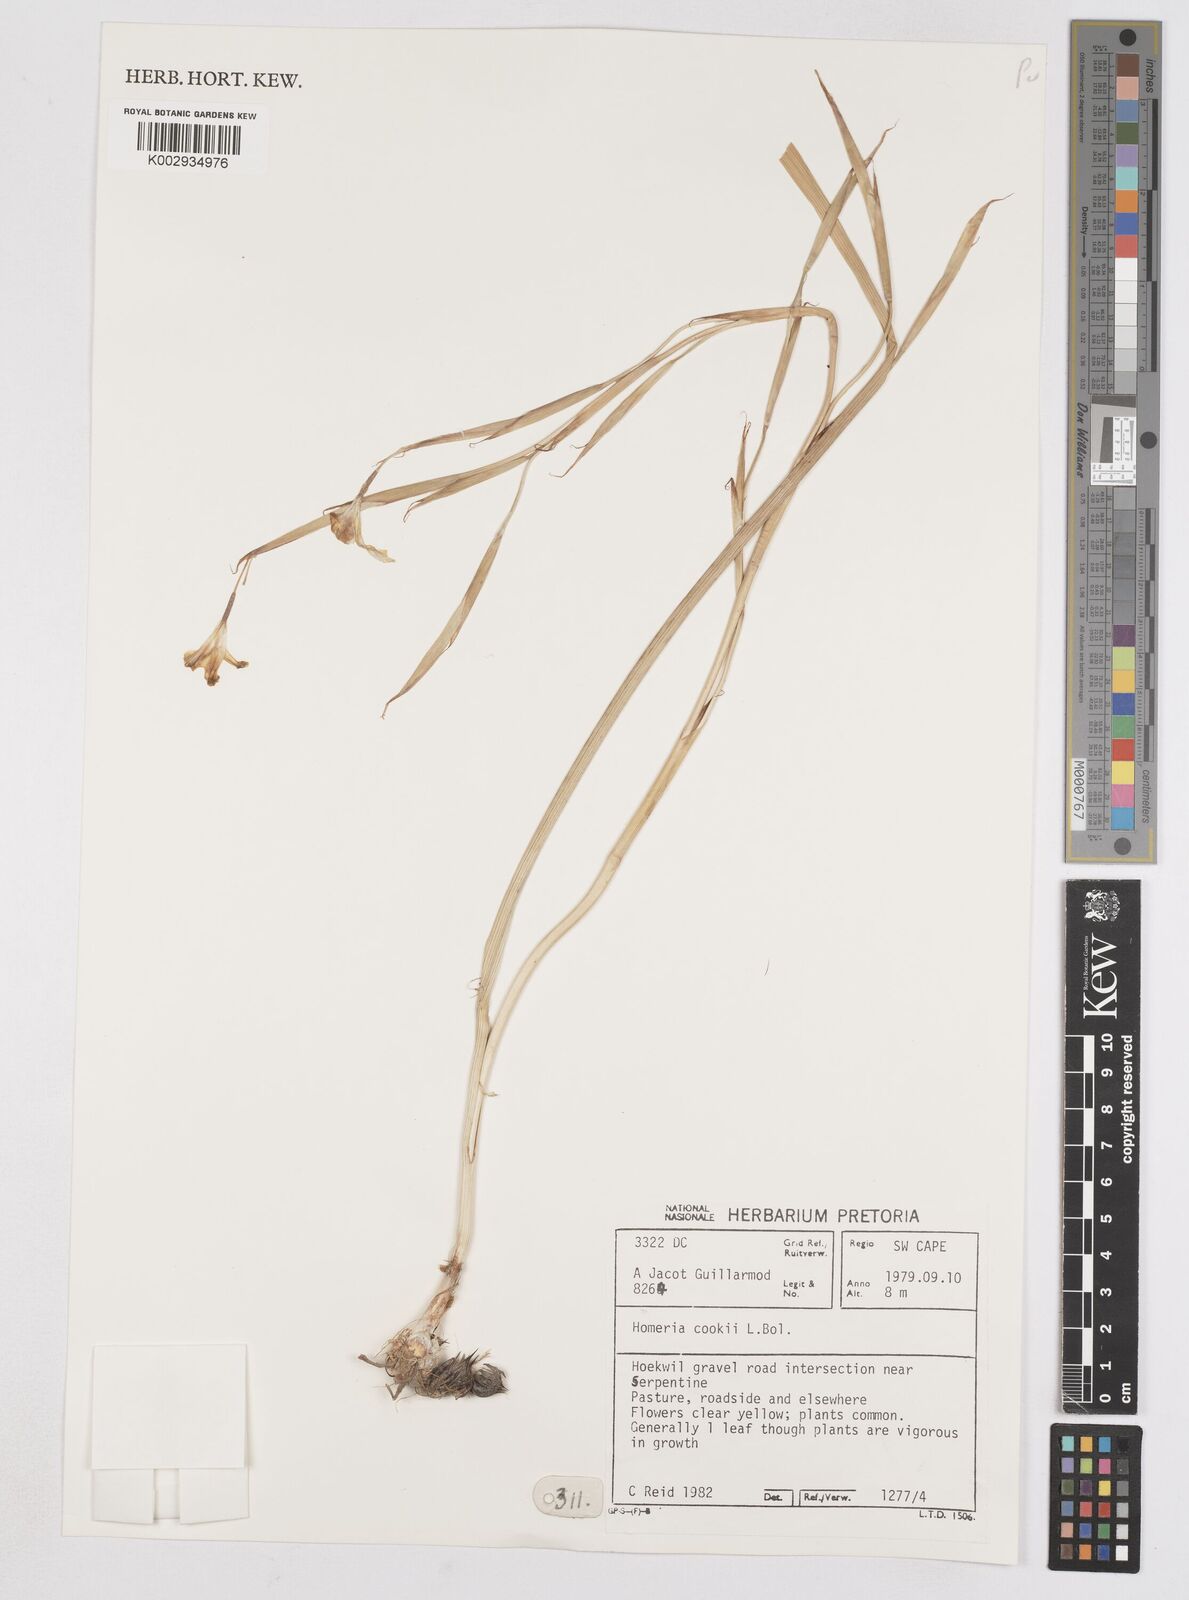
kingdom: Plantae
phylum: Tracheophyta
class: Liliopsida
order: Asparagales
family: Iridaceae
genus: Moraea
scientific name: Moraea cookii
